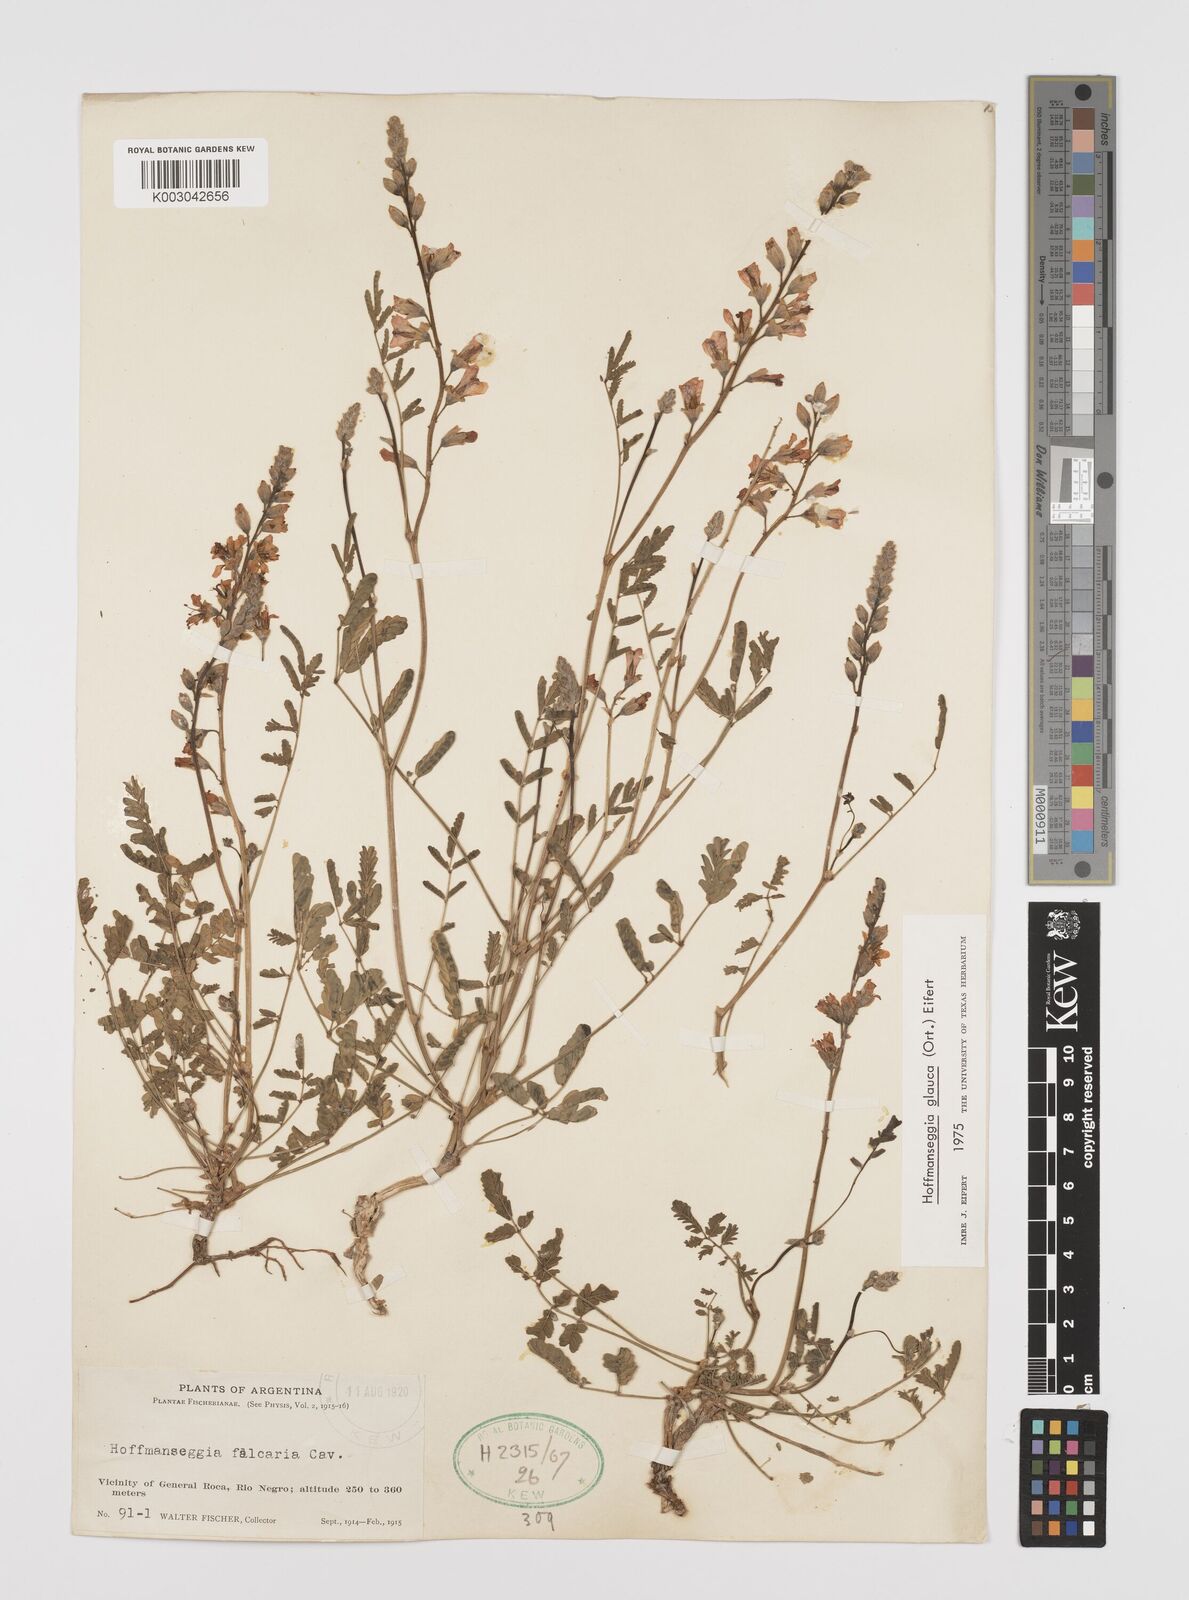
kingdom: Plantae
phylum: Tracheophyta
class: Magnoliopsida
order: Fabales
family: Fabaceae
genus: Hoffmannseggia
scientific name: Hoffmannseggia glauca
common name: Pignut
